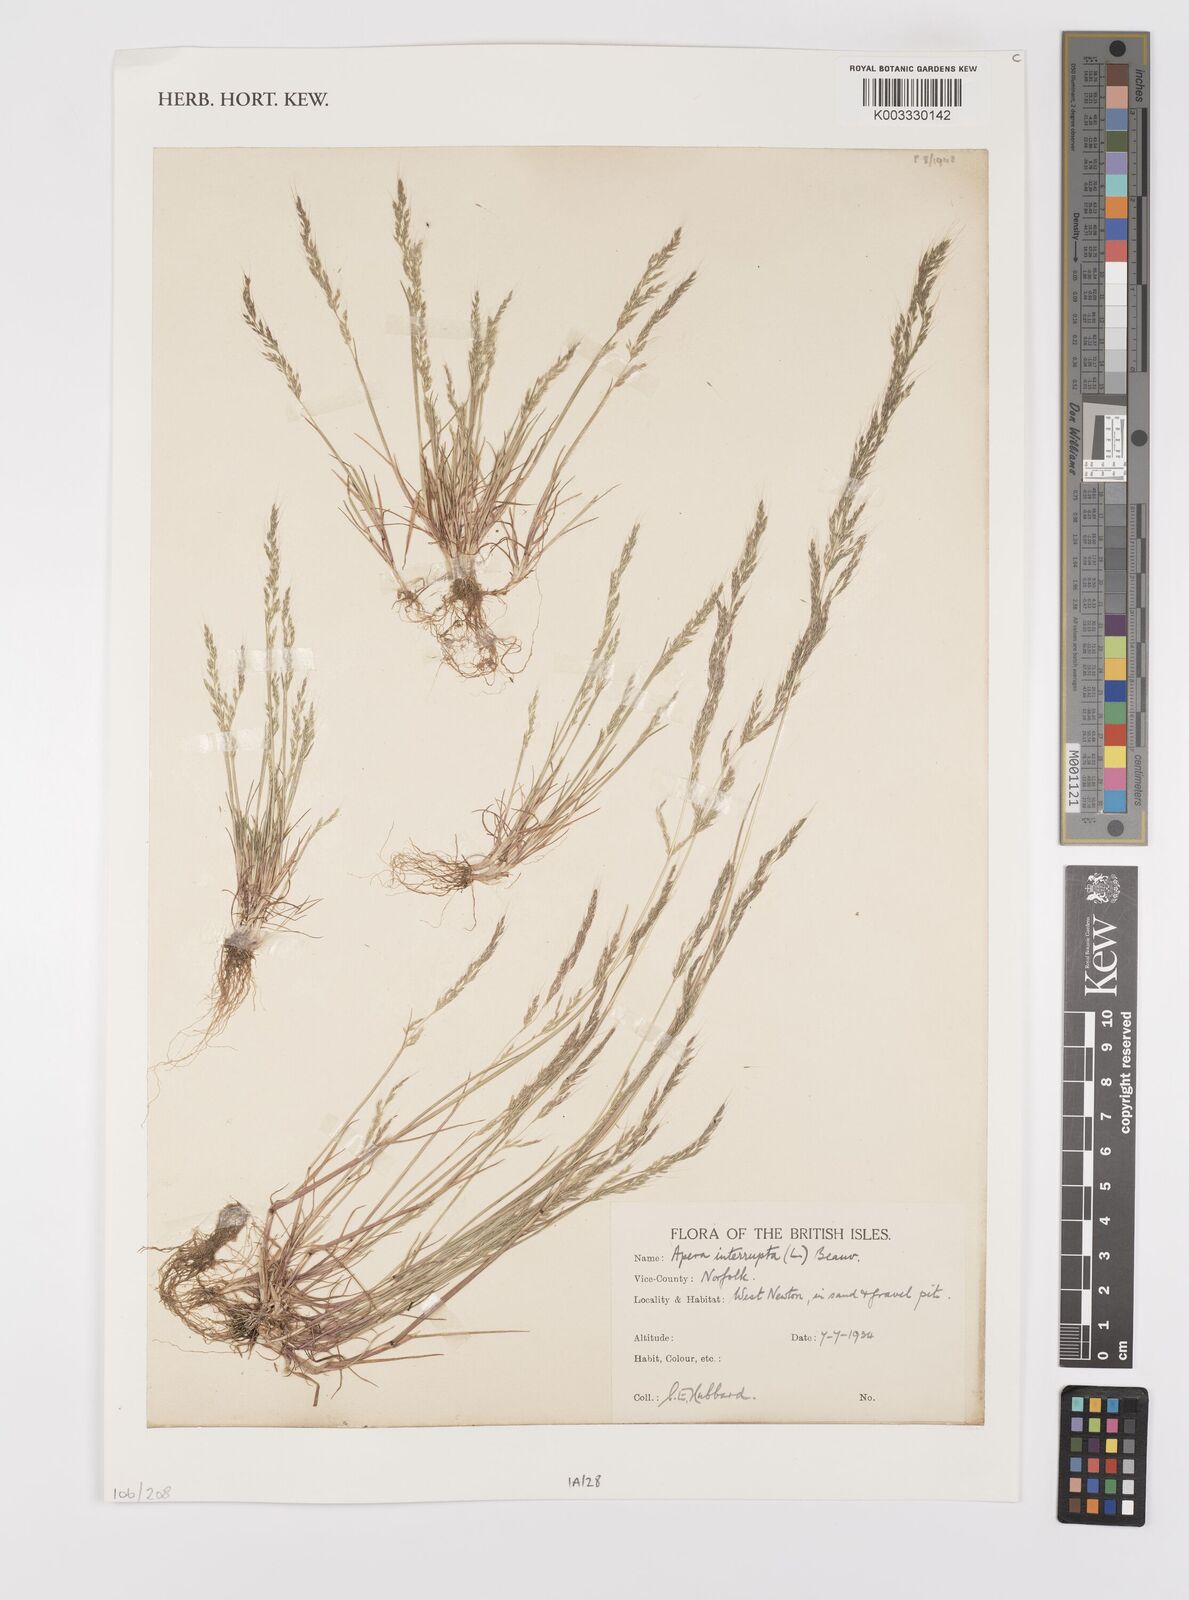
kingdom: Plantae
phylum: Tracheophyta
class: Liliopsida
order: Poales
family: Poaceae
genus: Apera
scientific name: Apera interrupta
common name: Dense silky-bent
